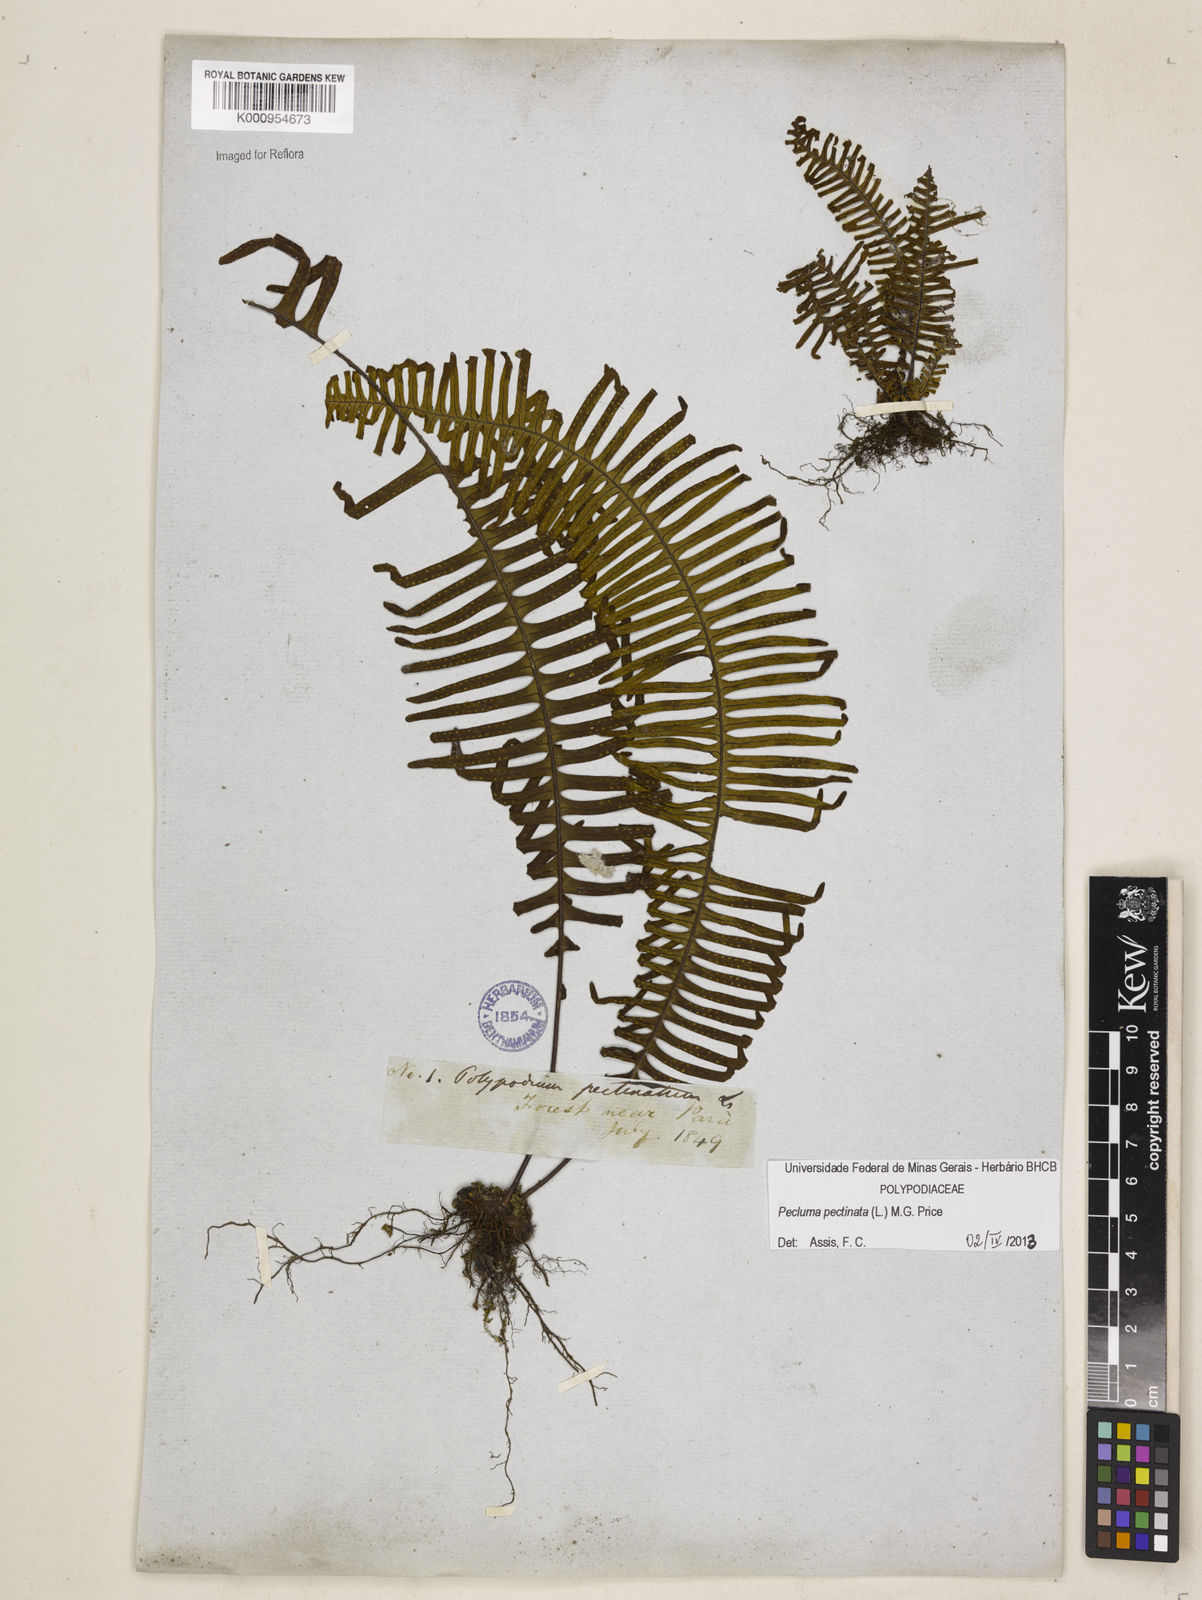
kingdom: Plantae
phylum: Tracheophyta
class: Polypodiopsida
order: Polypodiales
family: Polypodiaceae
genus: Pecluma
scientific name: Pecluma pectinata
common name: Msasa fern
